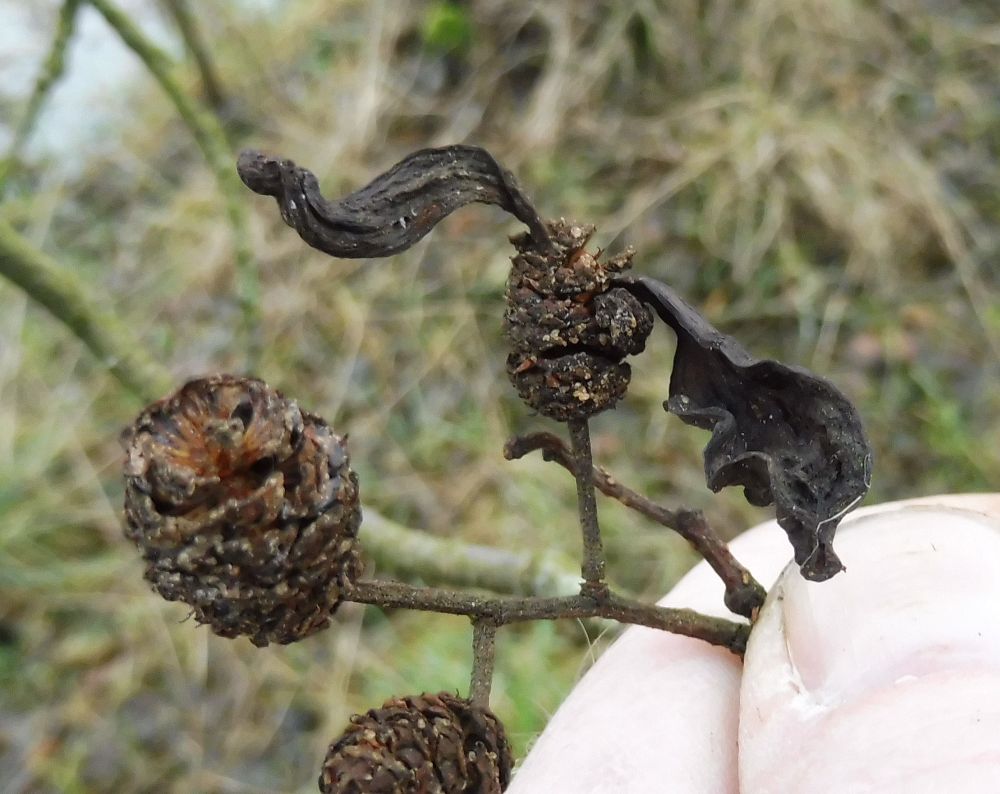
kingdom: Fungi
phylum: Ascomycota
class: Taphrinomycetes
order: Taphrinales
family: Taphrinaceae
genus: Taphrina
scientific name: Taphrina alni
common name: Alder tongue
